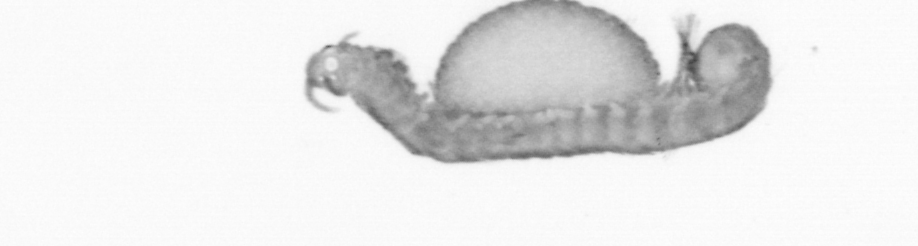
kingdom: Animalia
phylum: Annelida
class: Polychaeta
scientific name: Polychaeta
